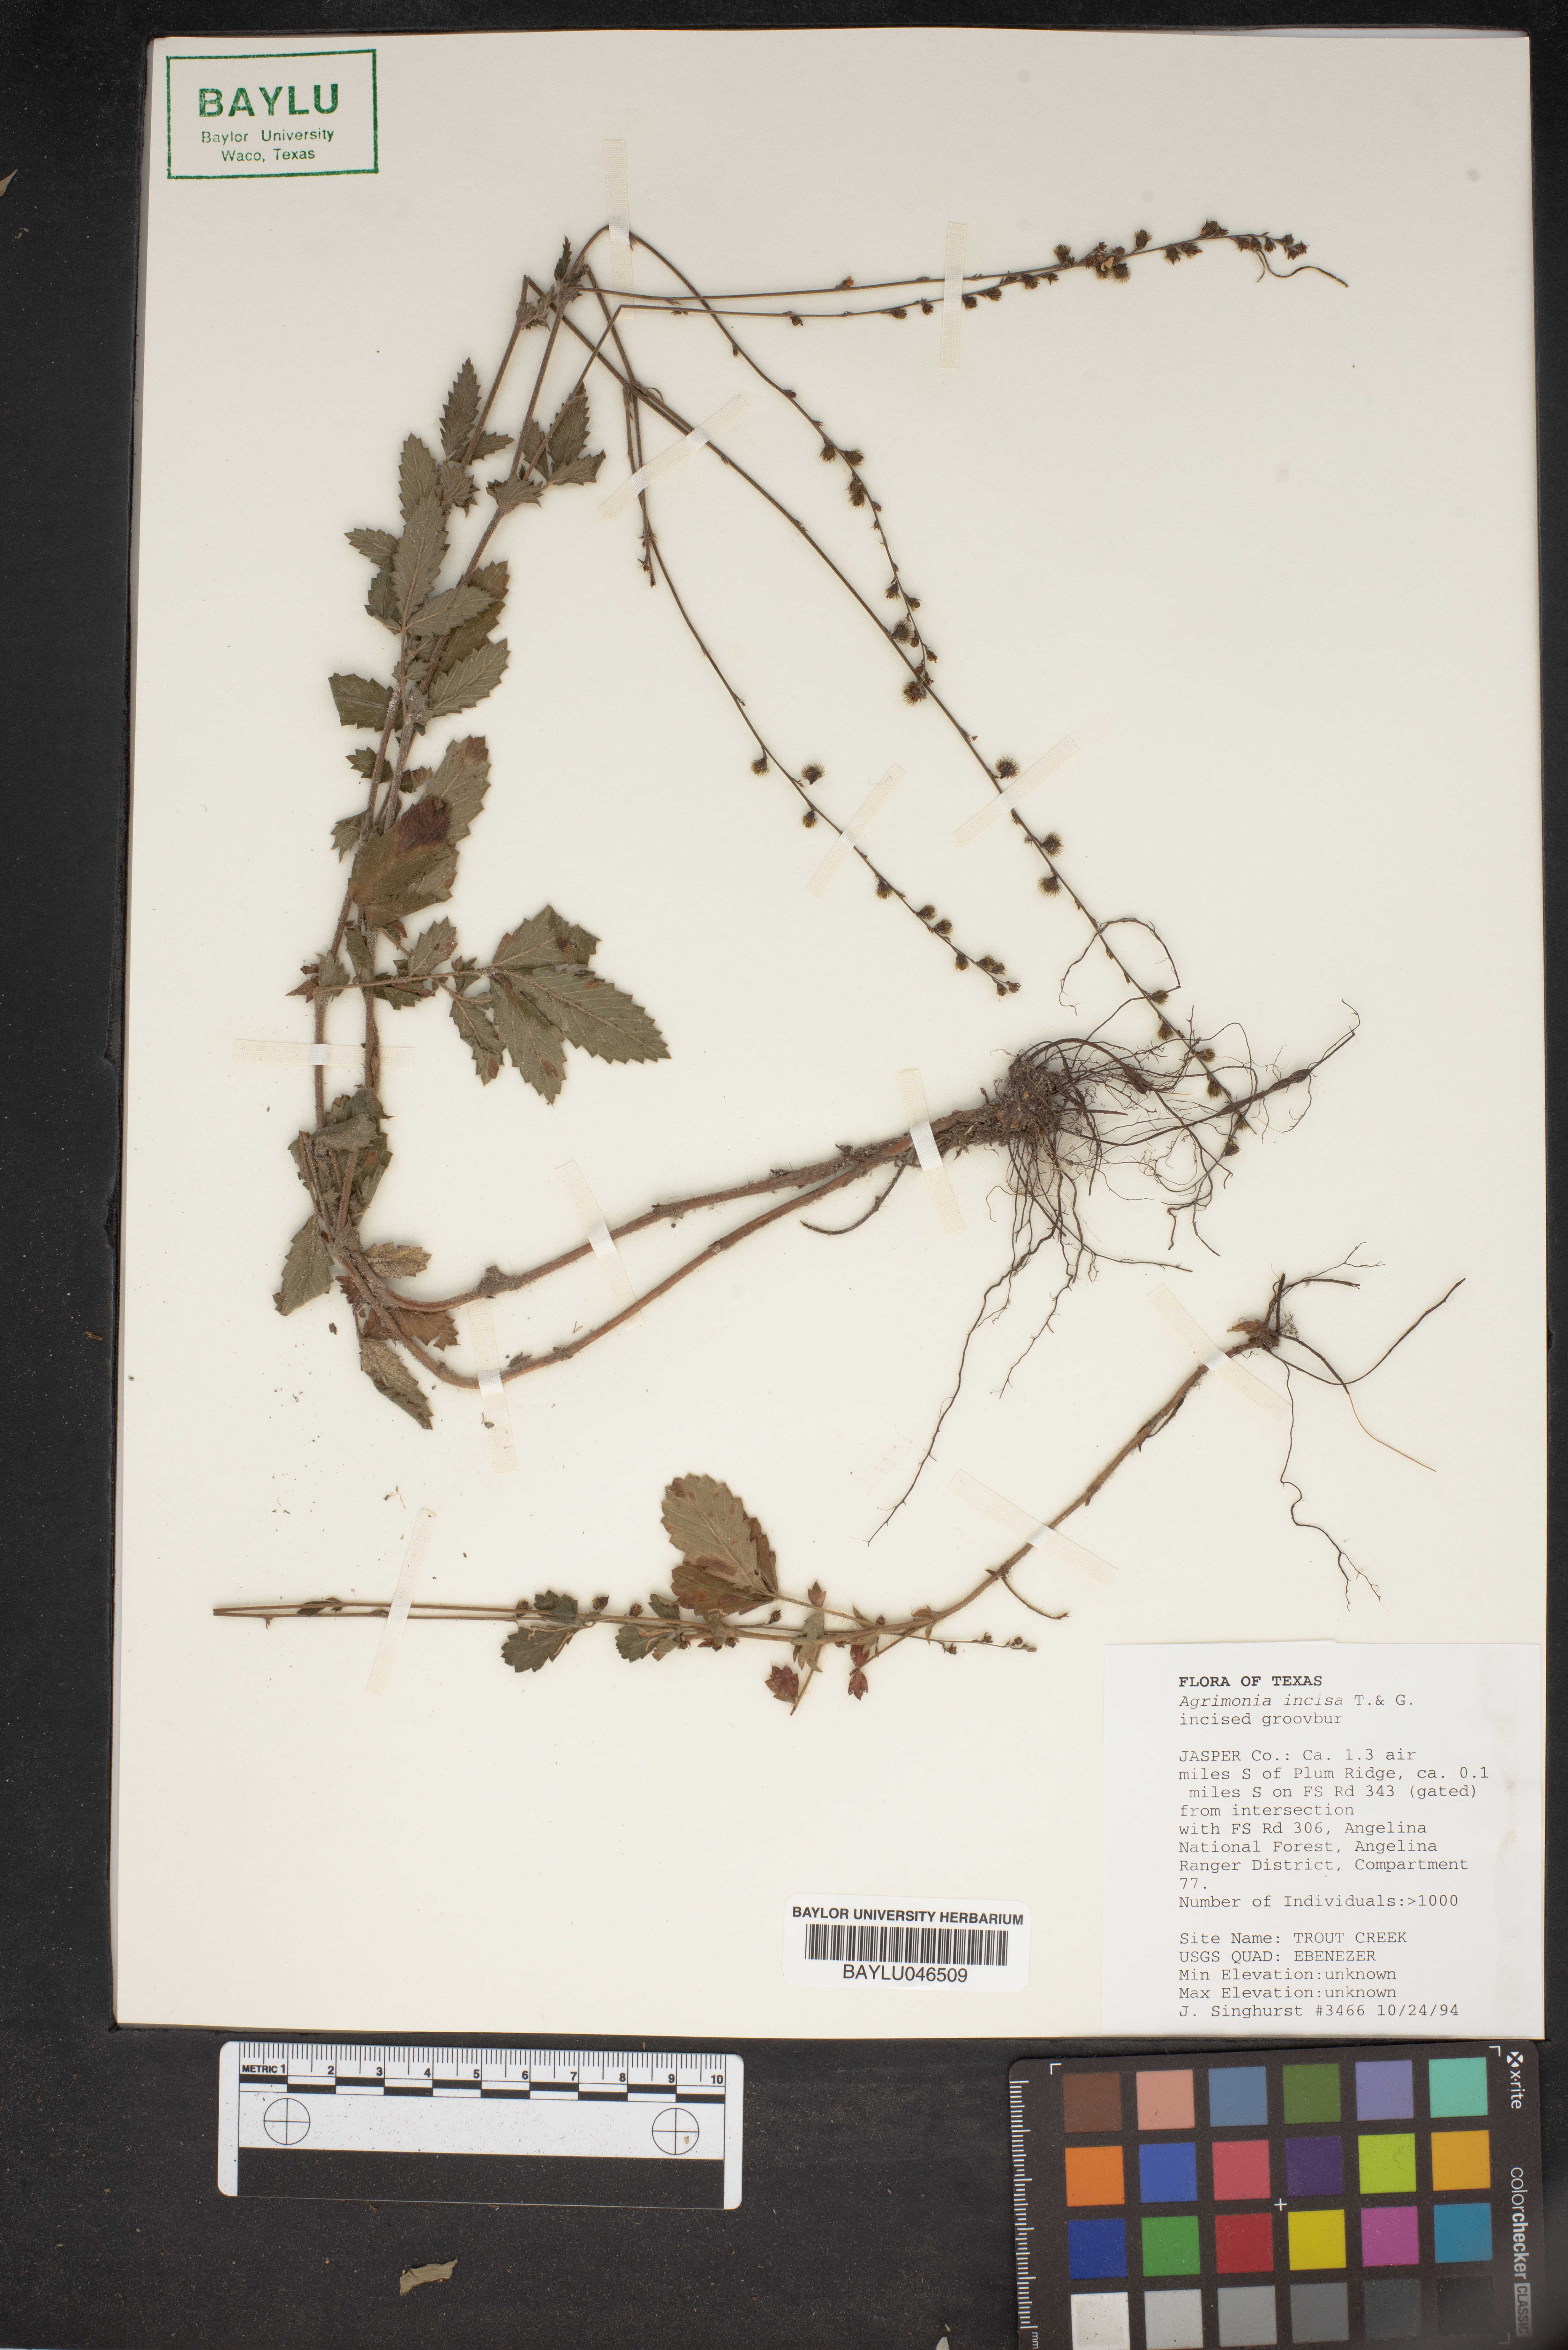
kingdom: Plantae
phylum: Tracheophyta
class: Magnoliopsida
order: Rosales
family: Rosaceae
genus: Agrimonia
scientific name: Agrimonia incisa
